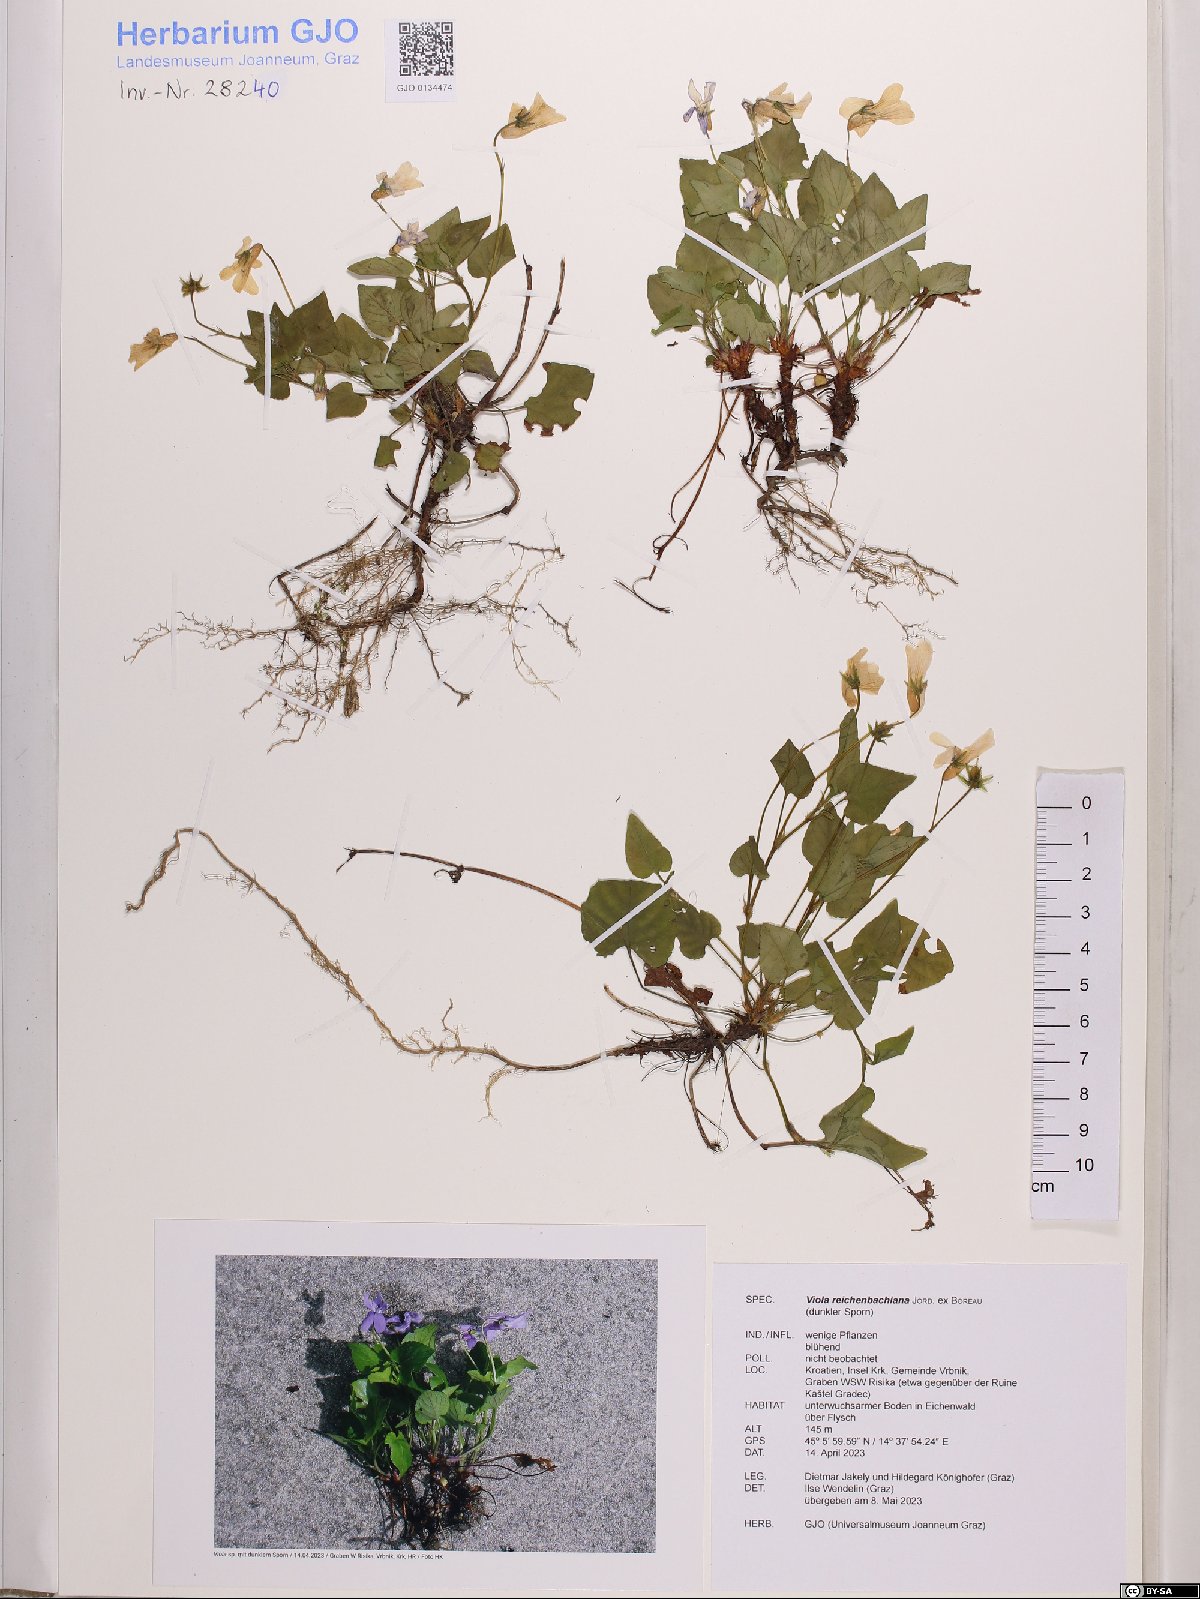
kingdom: Plantae
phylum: Tracheophyta
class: Magnoliopsida
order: Malpighiales
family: Violaceae
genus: Viola
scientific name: Viola reichenbachiana
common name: Early dog-violet
